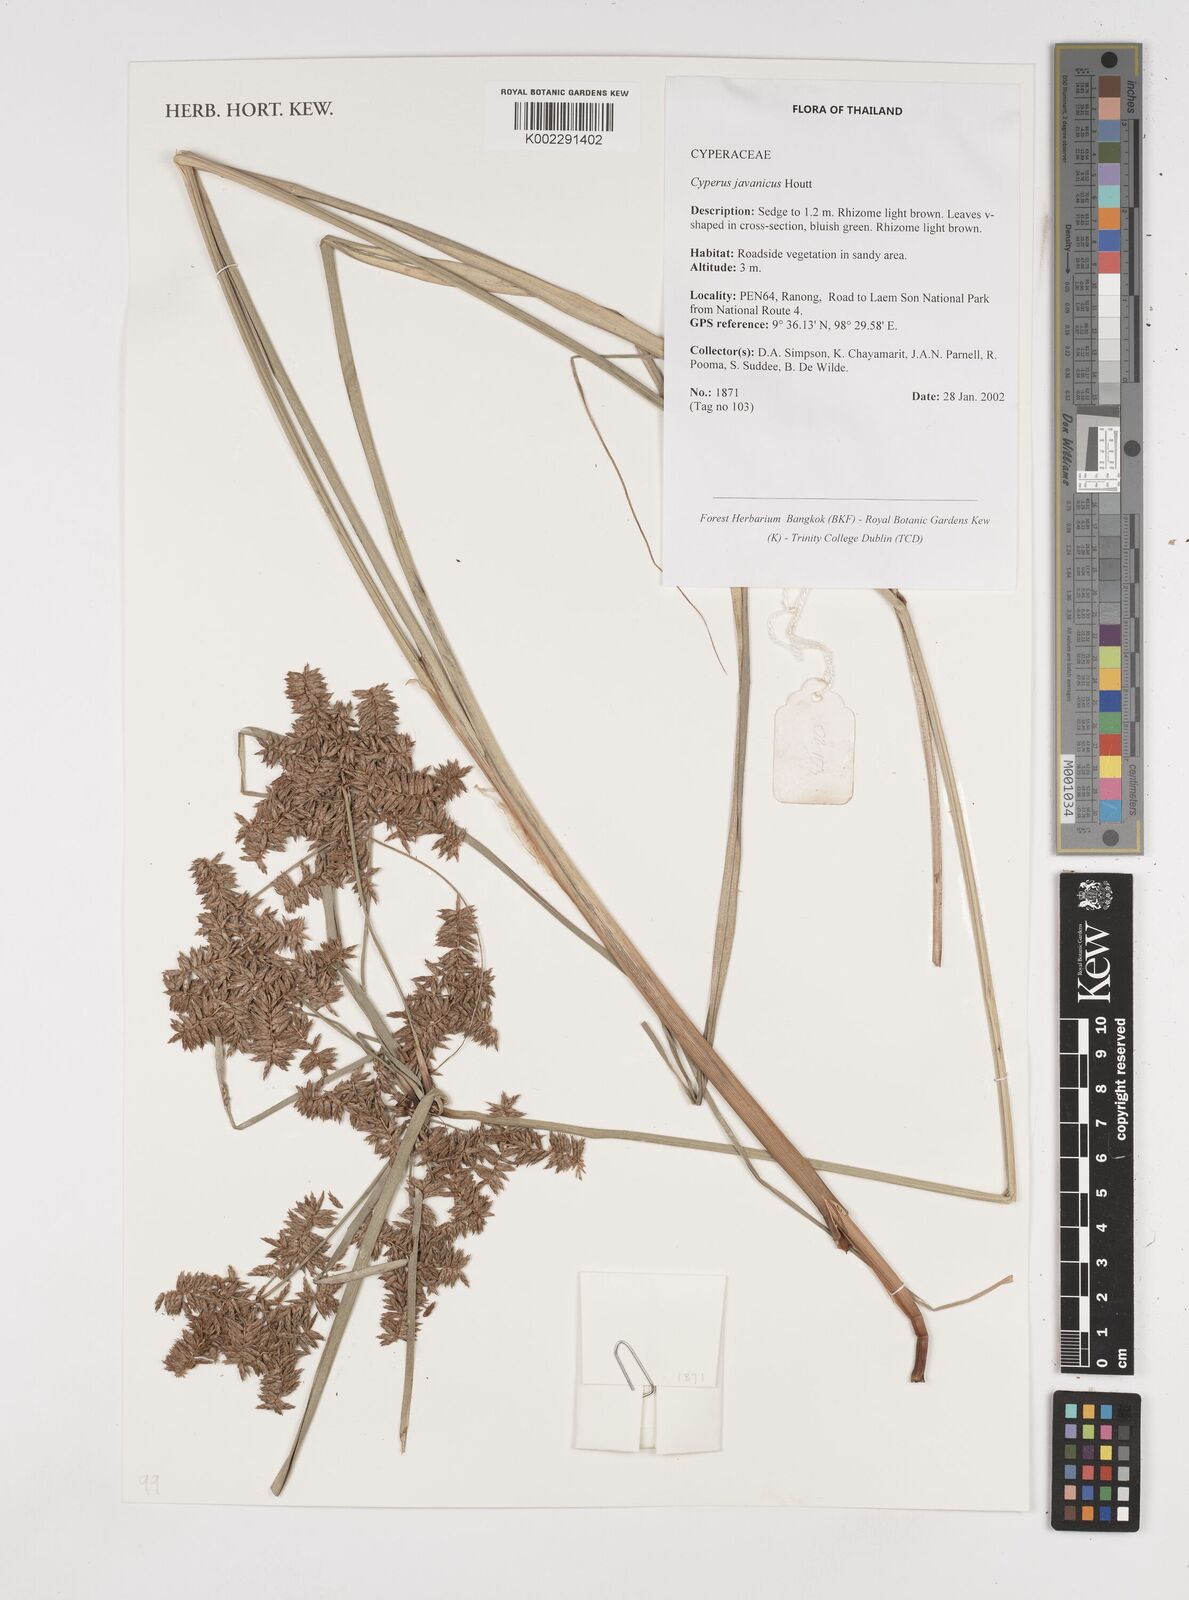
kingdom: Plantae
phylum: Tracheophyta
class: Liliopsida
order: Poales
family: Cyperaceae
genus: Cyperus
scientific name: Cyperus javanicus
